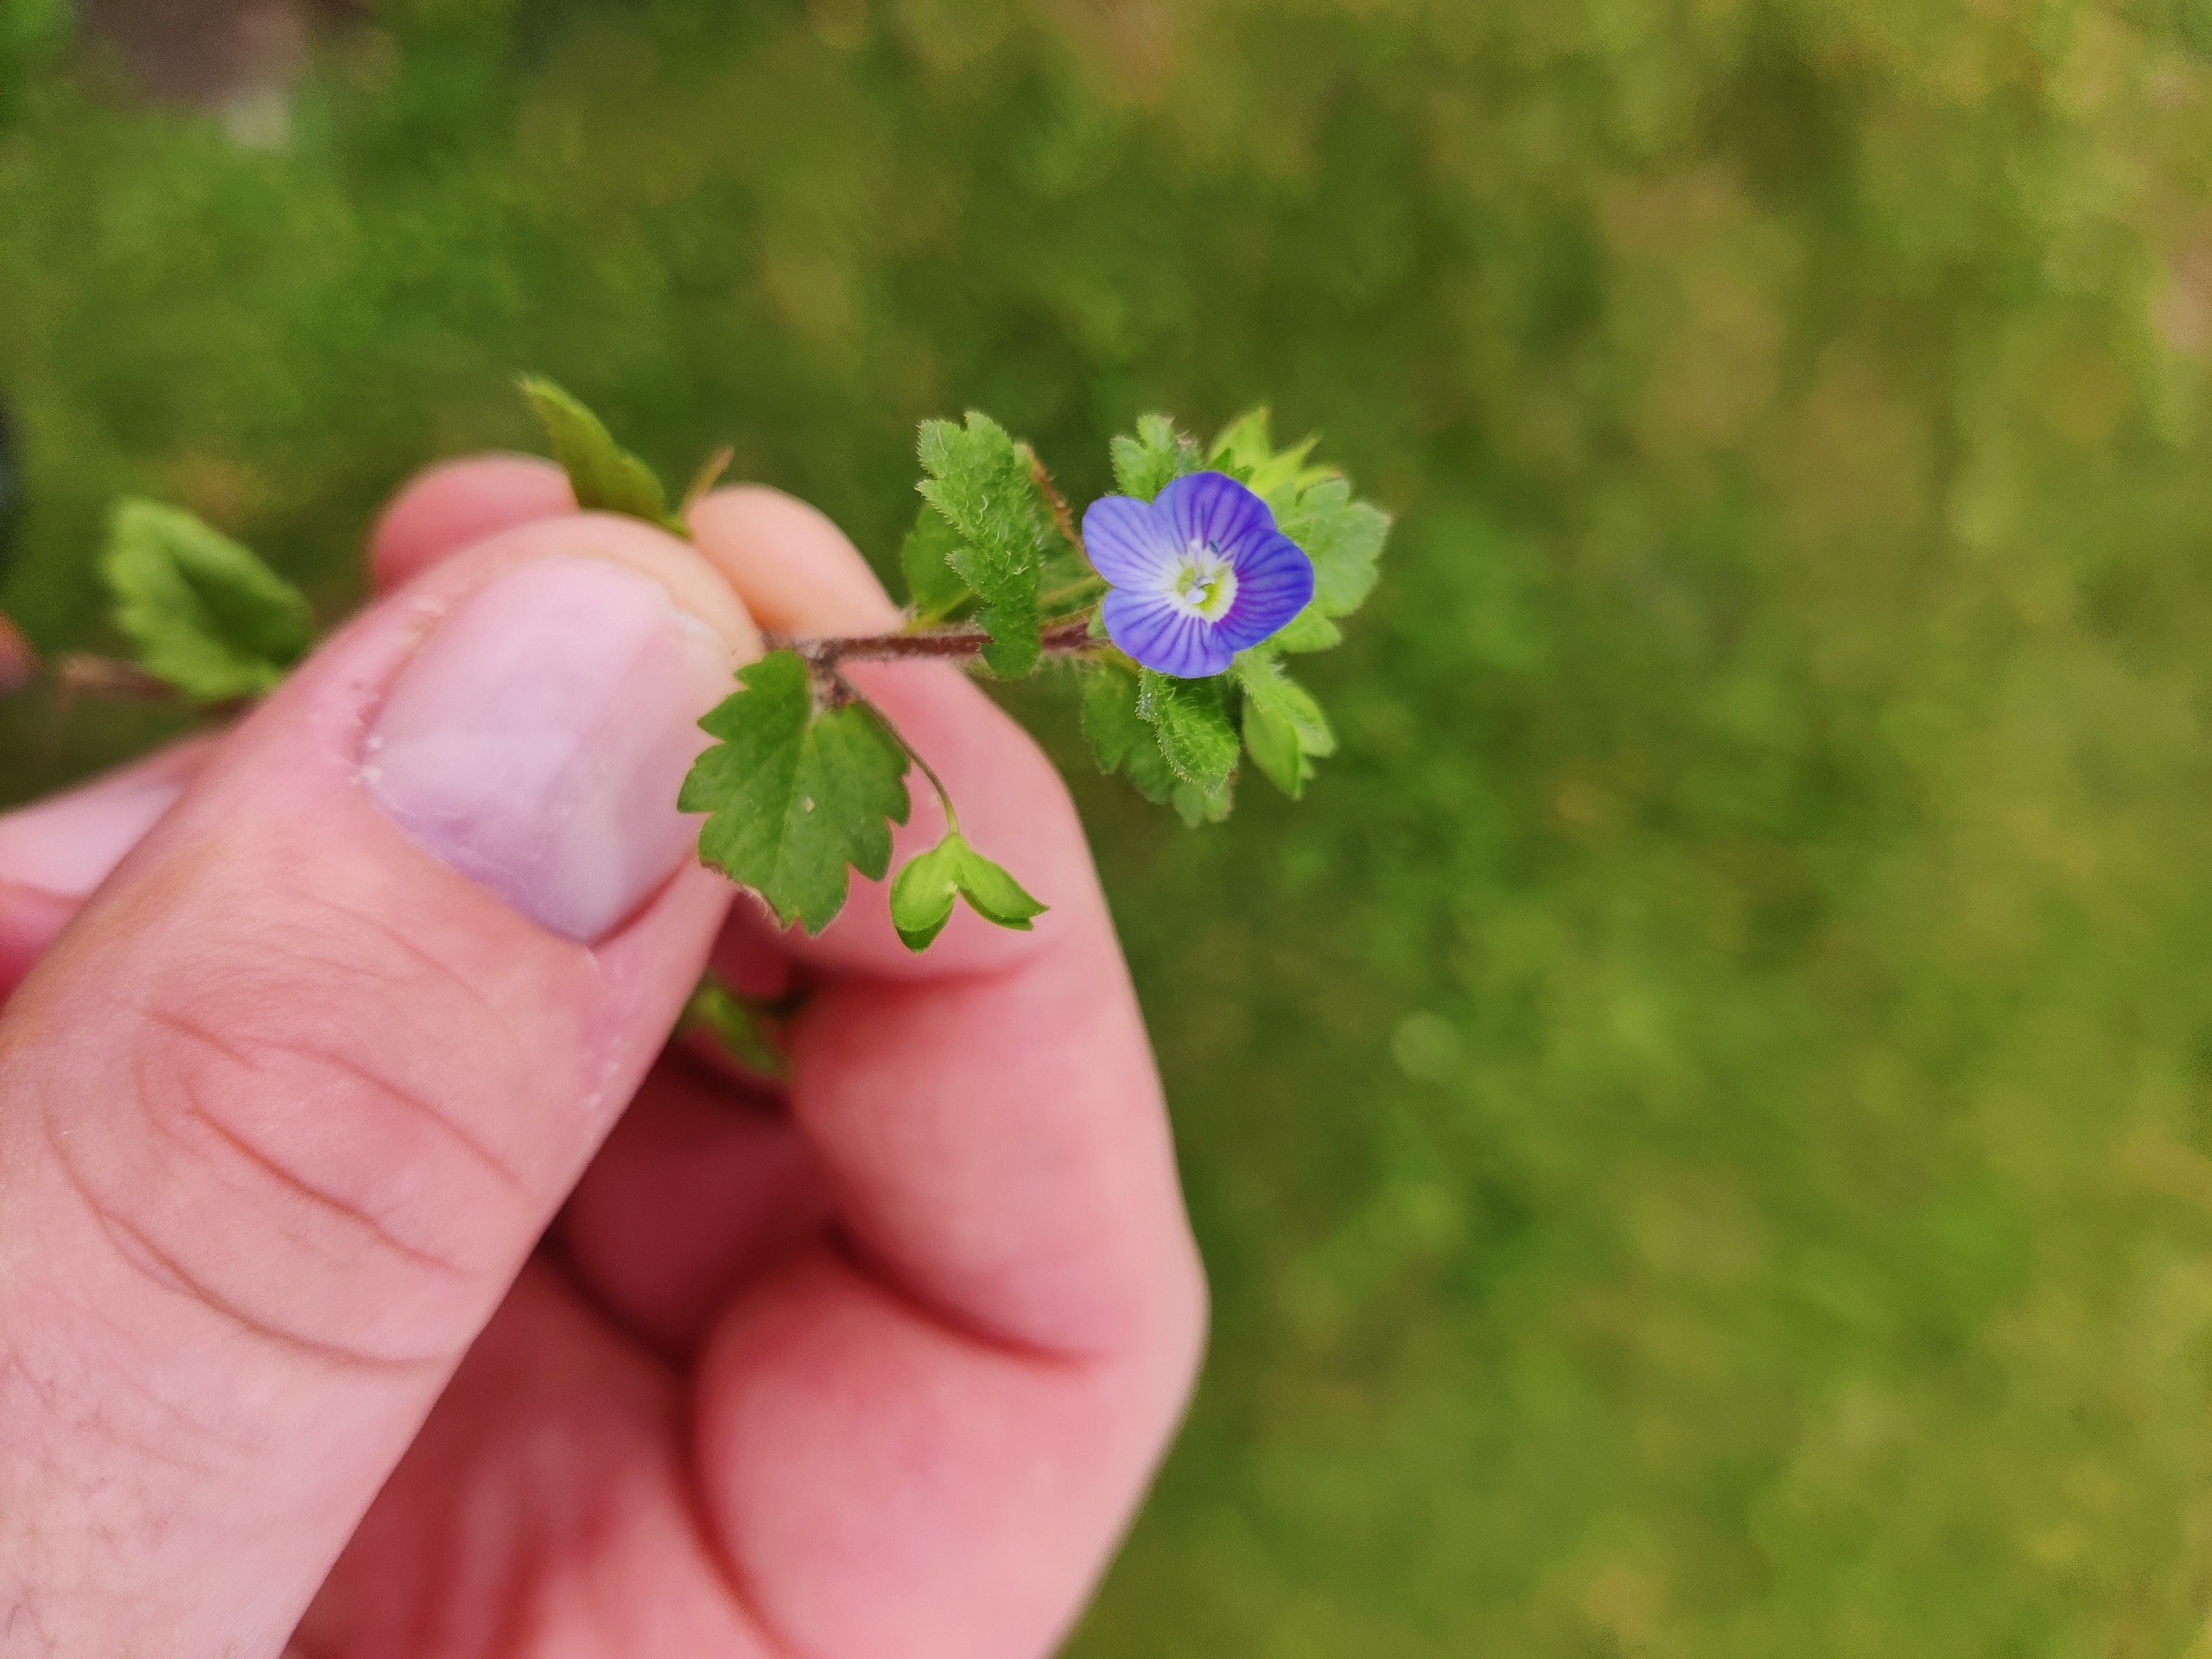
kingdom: Plantae
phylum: Tracheophyta
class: Magnoliopsida
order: Lamiales
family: Plantaginaceae
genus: Veronica
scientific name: Veronica polita
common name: Blank ærenpris
